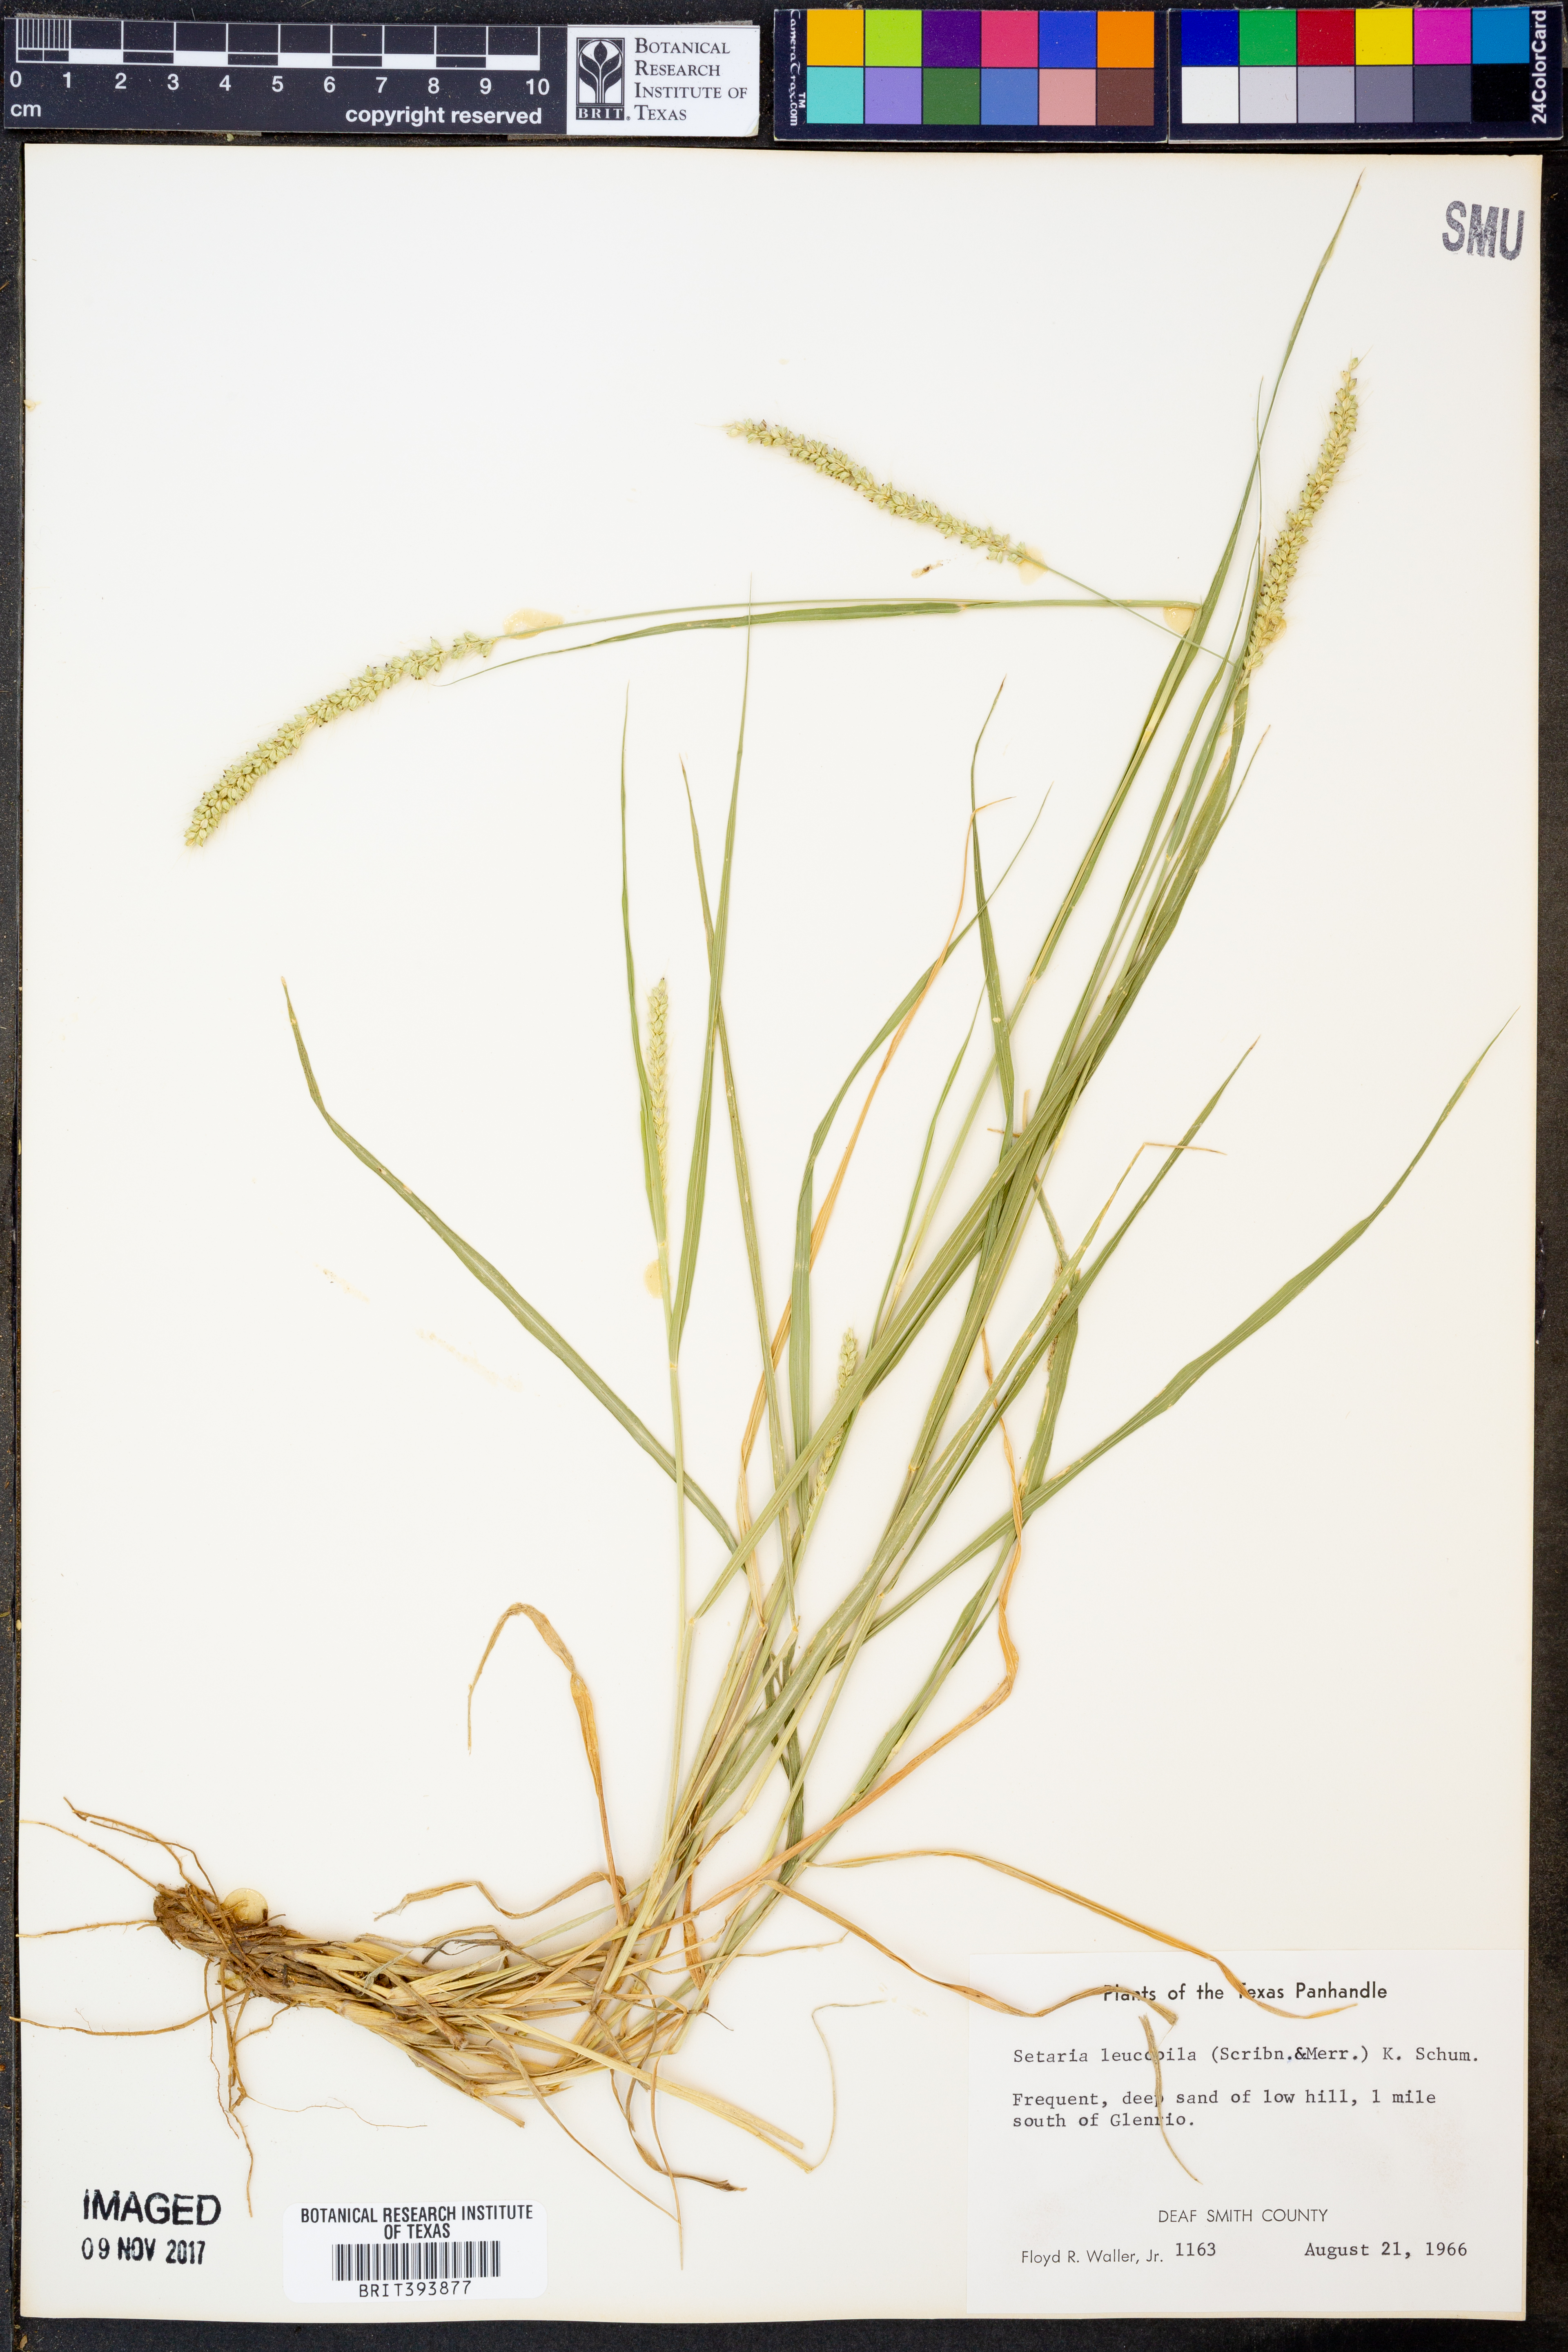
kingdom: Plantae
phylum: Tracheophyta
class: Liliopsida
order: Poales
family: Poaceae
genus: Setaria
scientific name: Setaria leucopila
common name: Plains bristle grass
